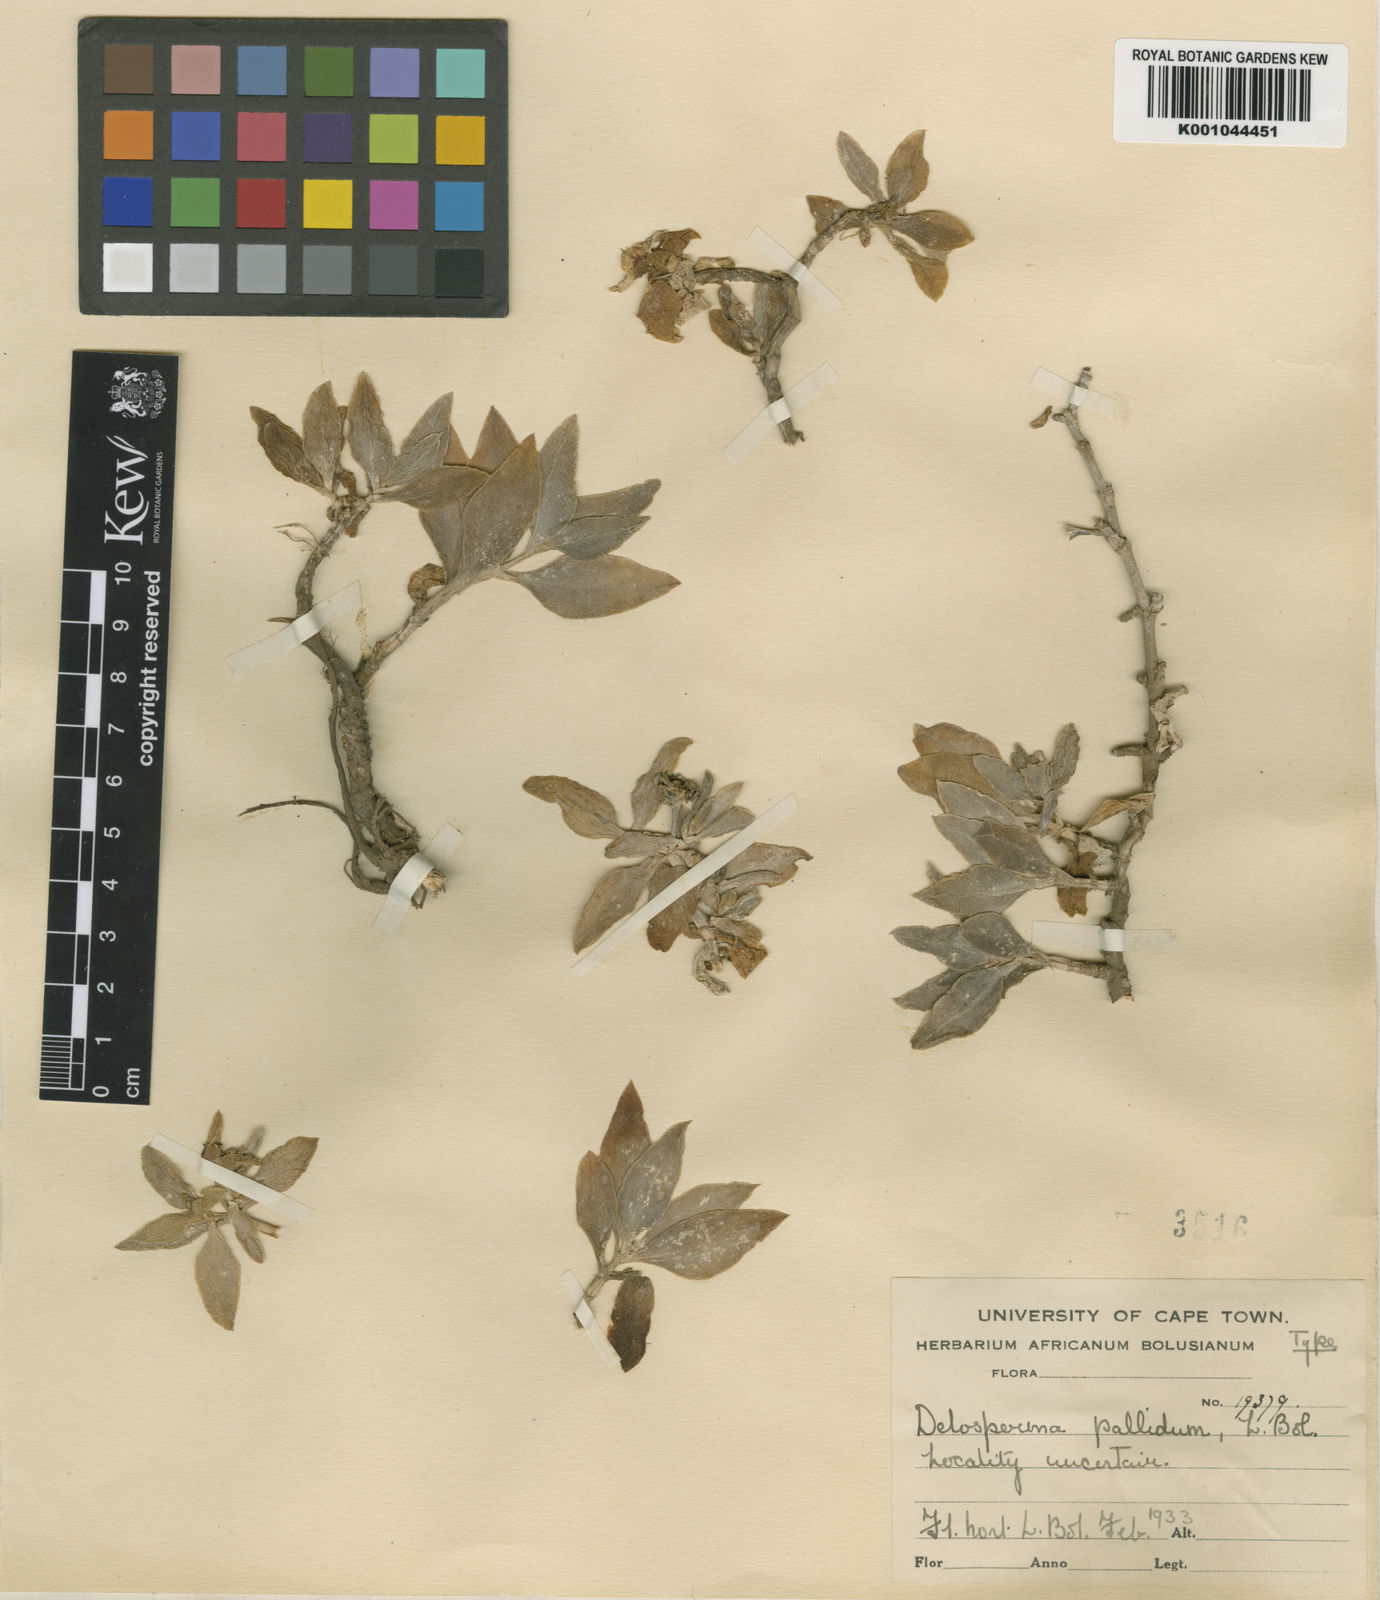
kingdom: Plantae
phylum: Tracheophyta
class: Magnoliopsida
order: Caryophyllales
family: Aizoaceae
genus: Delosperma
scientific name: Delosperma tradescantioides
